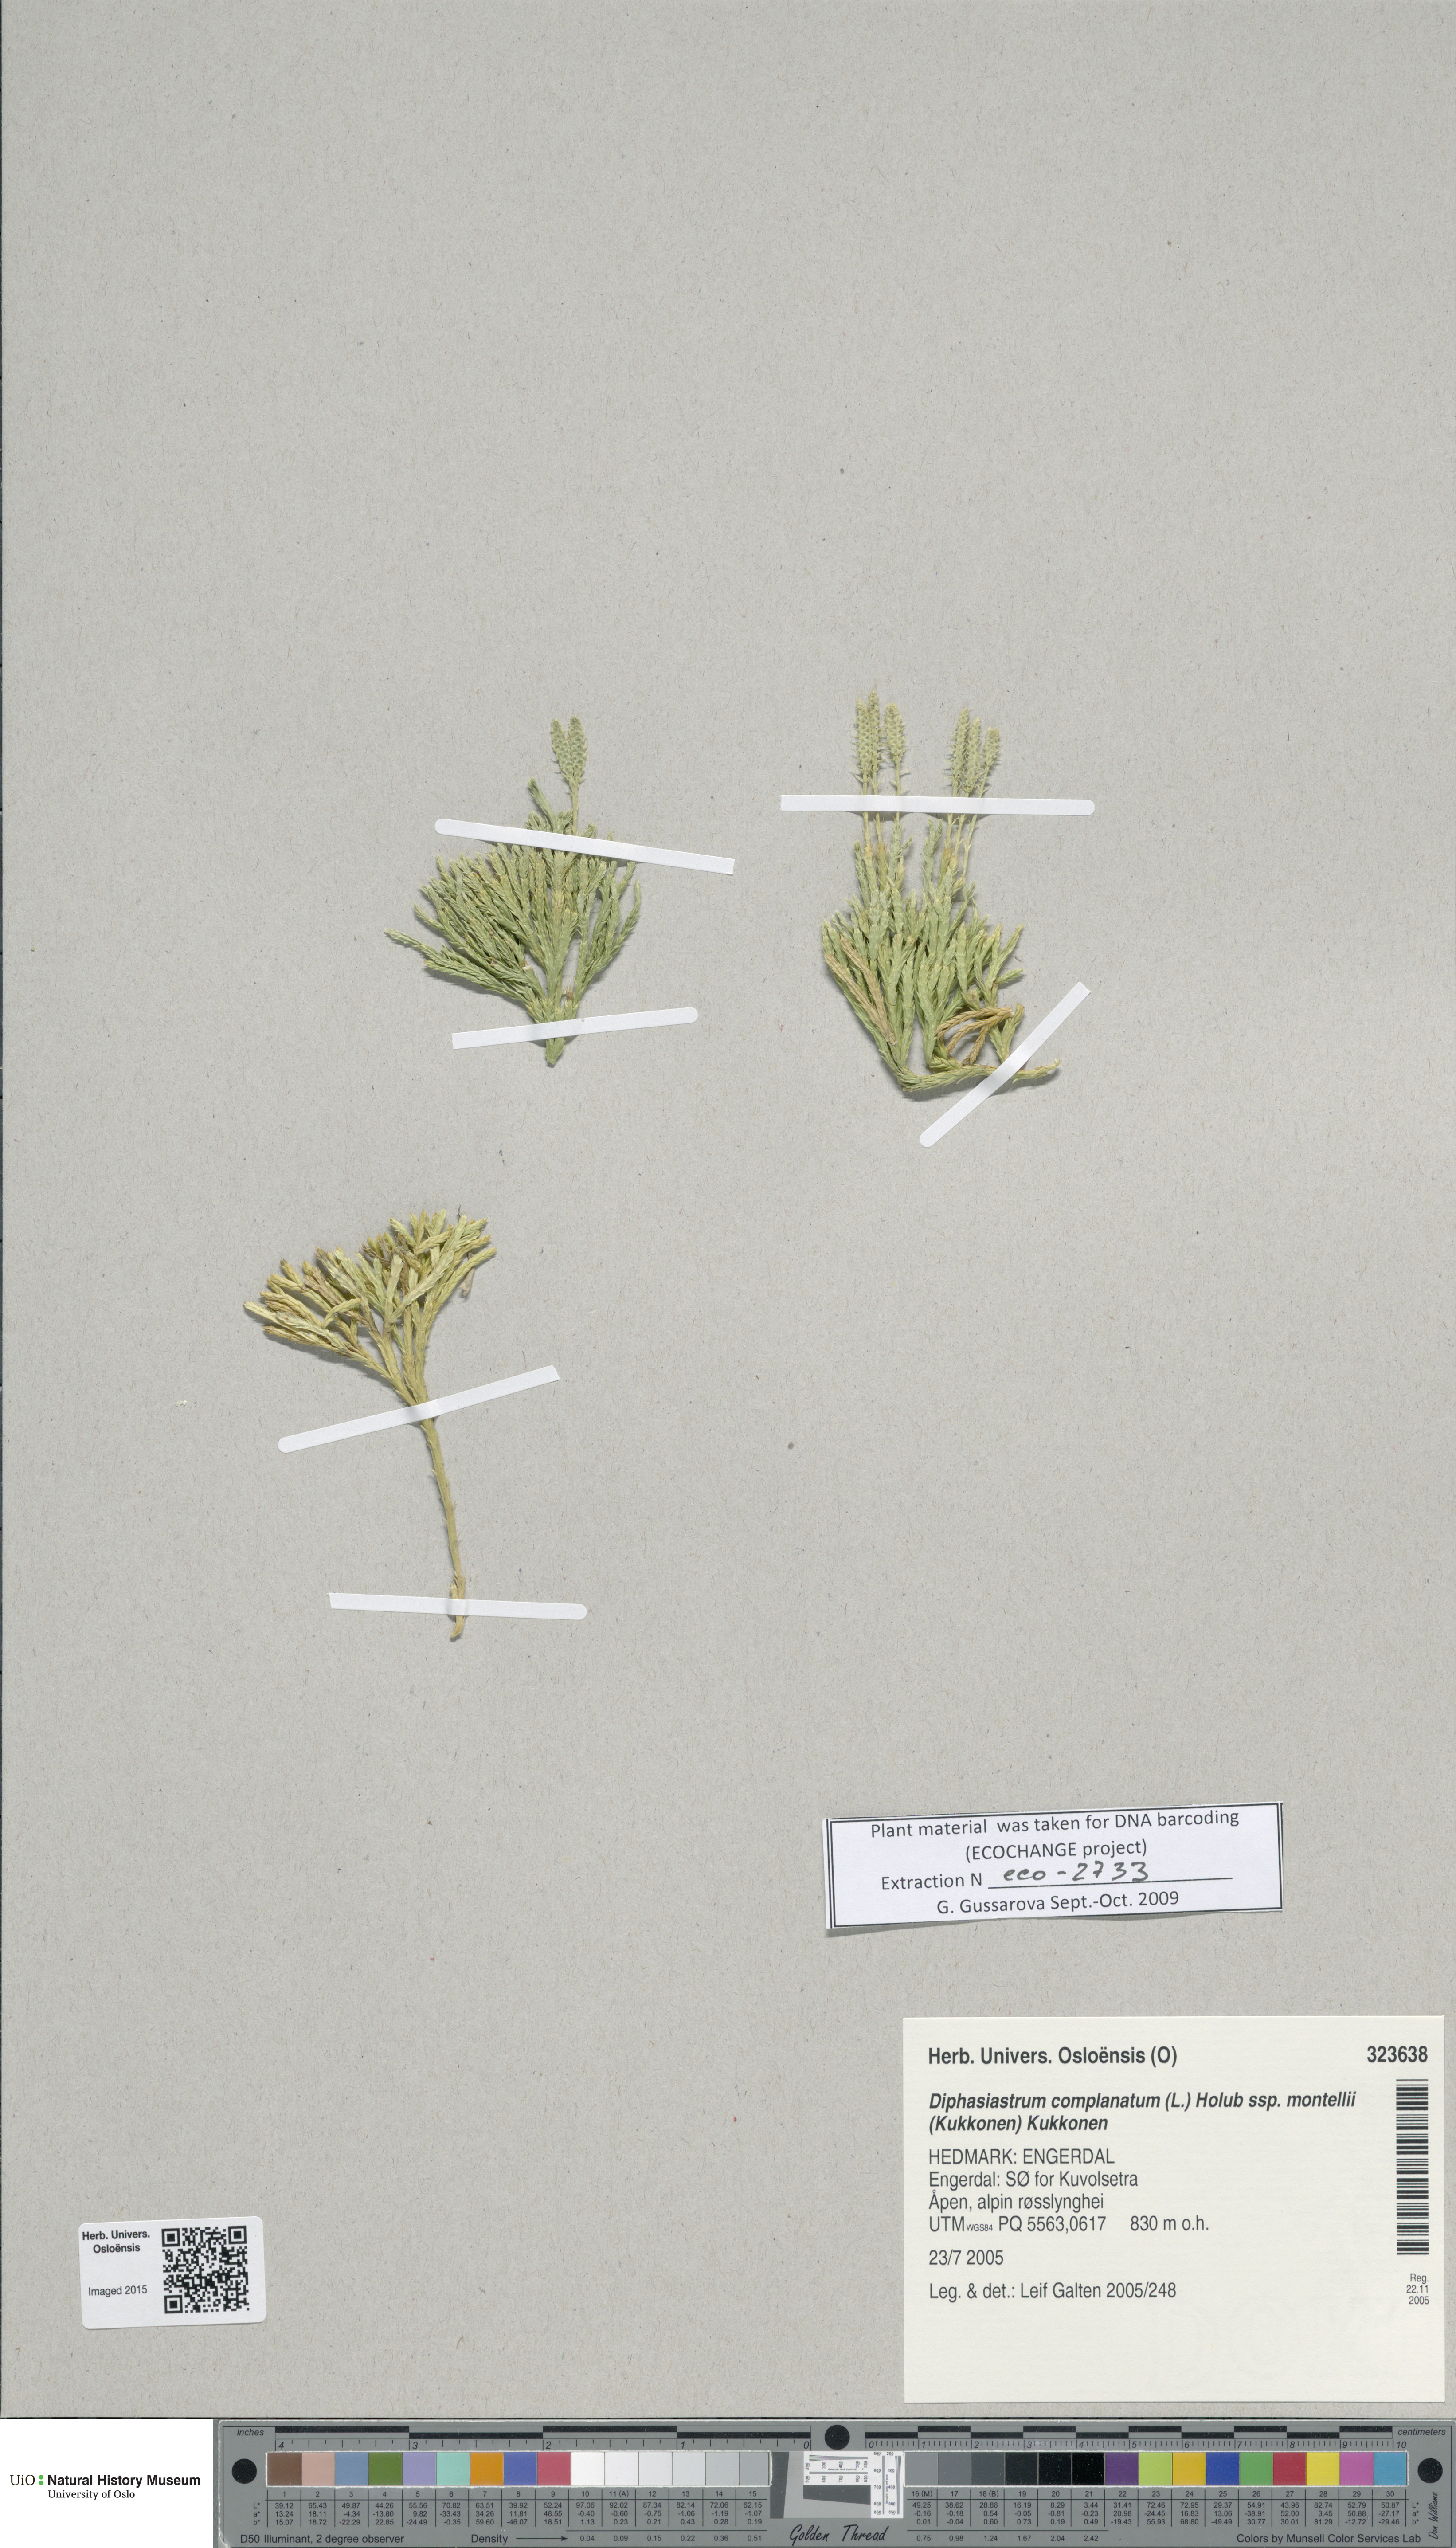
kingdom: Plantae
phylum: Tracheophyta
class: Lycopodiopsida
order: Lycopodiales
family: Lycopodiaceae
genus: Diphasiastrum
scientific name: Diphasiastrum complanatum
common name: Northern running-pine
